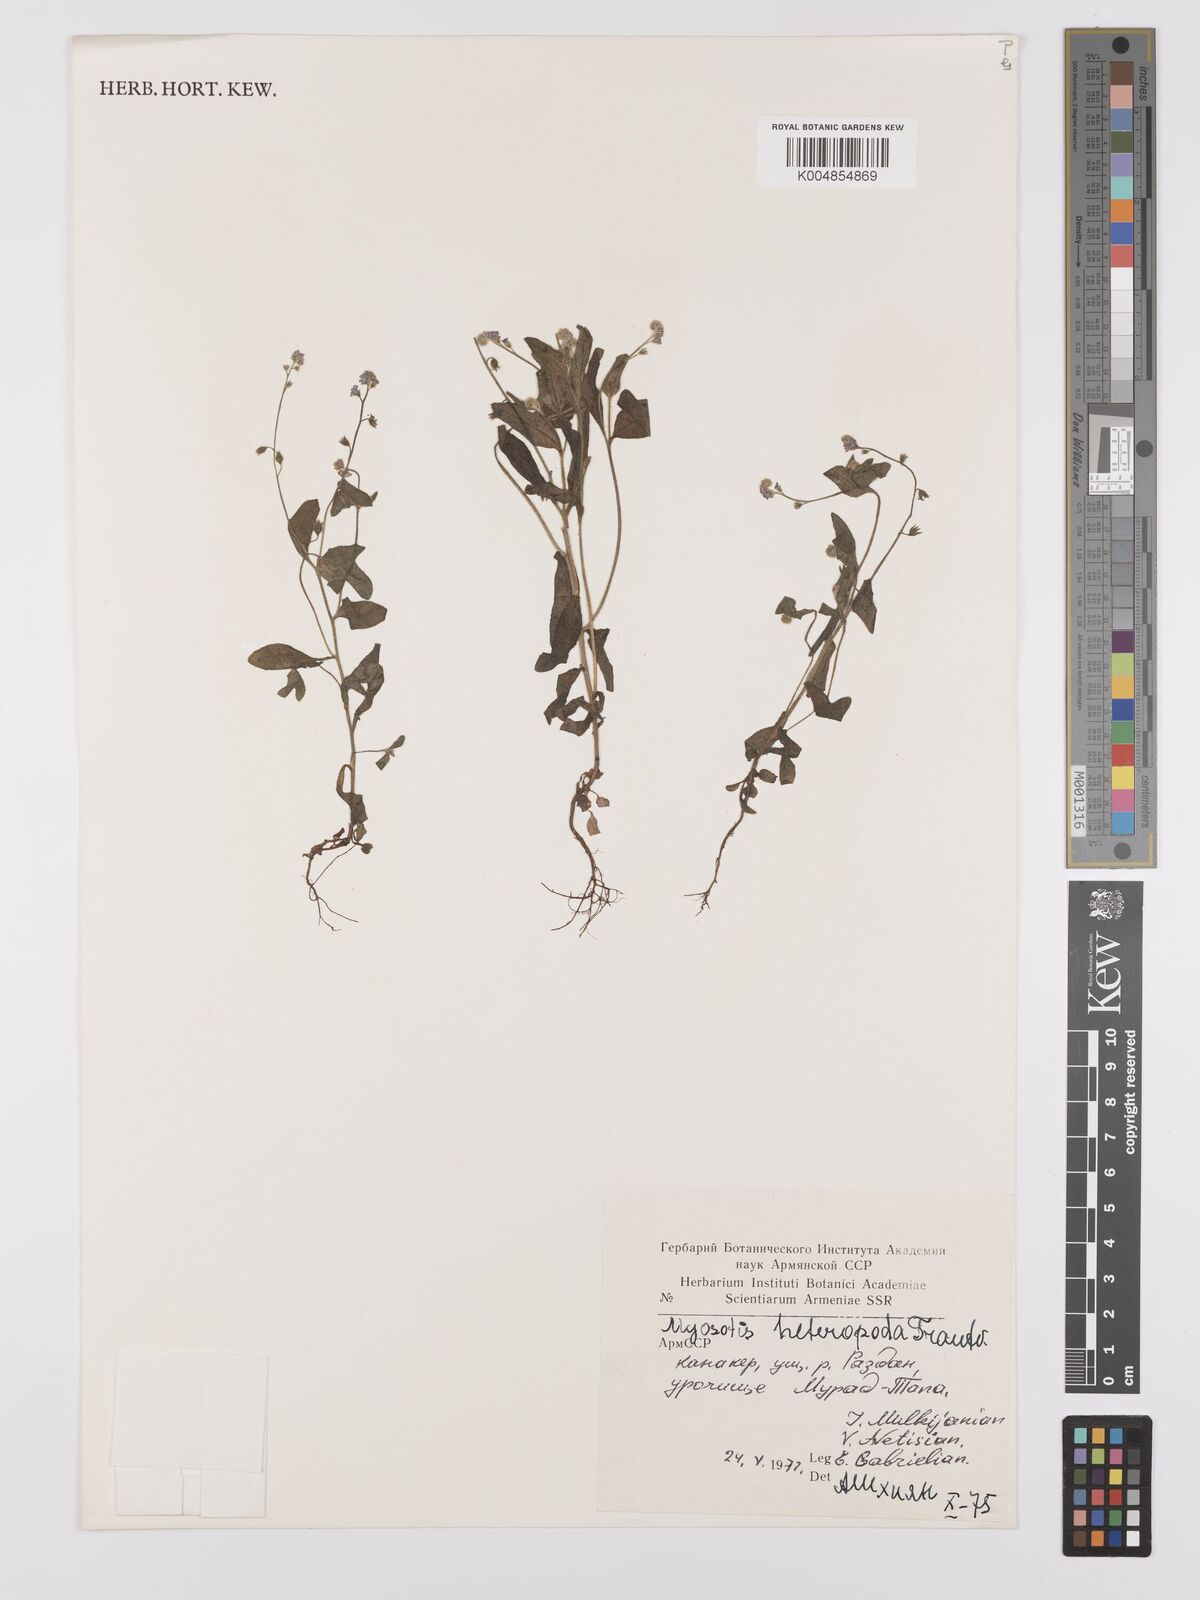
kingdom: Plantae
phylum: Tracheophyta
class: Magnoliopsida
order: Boraginales
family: Boraginaceae
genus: Myosotis
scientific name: Myosotis heteropoda
